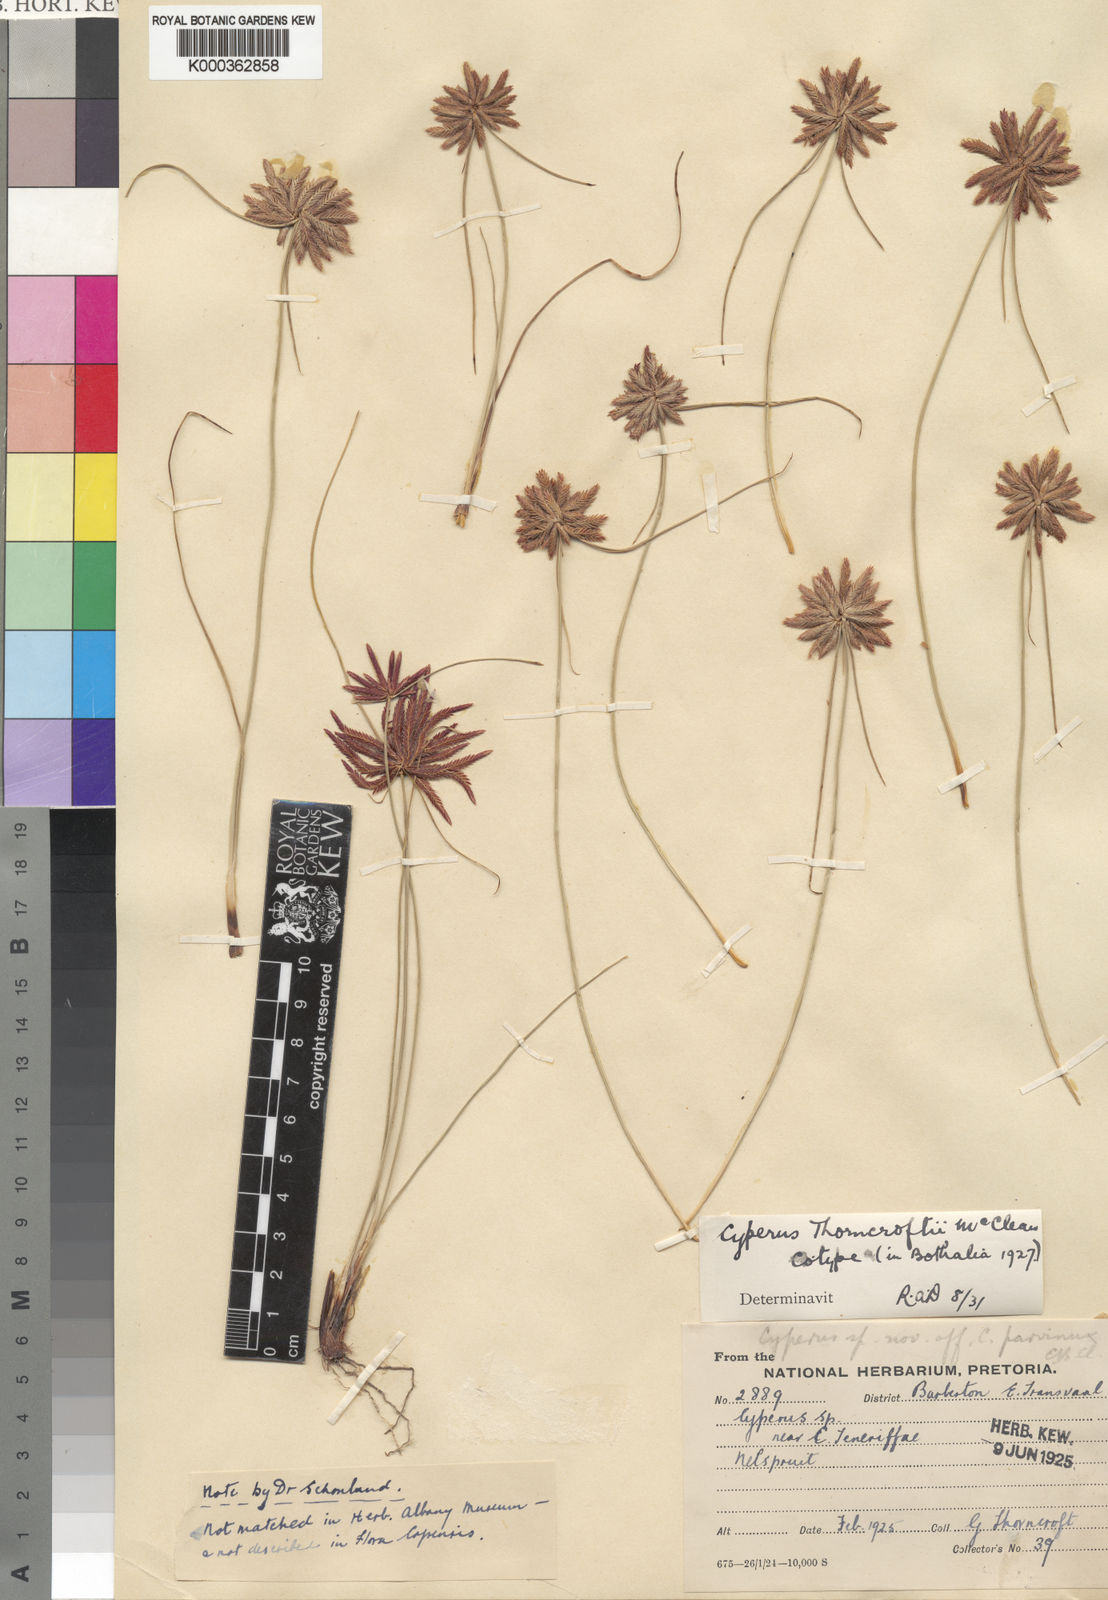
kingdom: Plantae
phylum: Tracheophyta
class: Liliopsida
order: Poales
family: Cyperaceae
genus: Cyperus
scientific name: Cyperus thorncroftii
